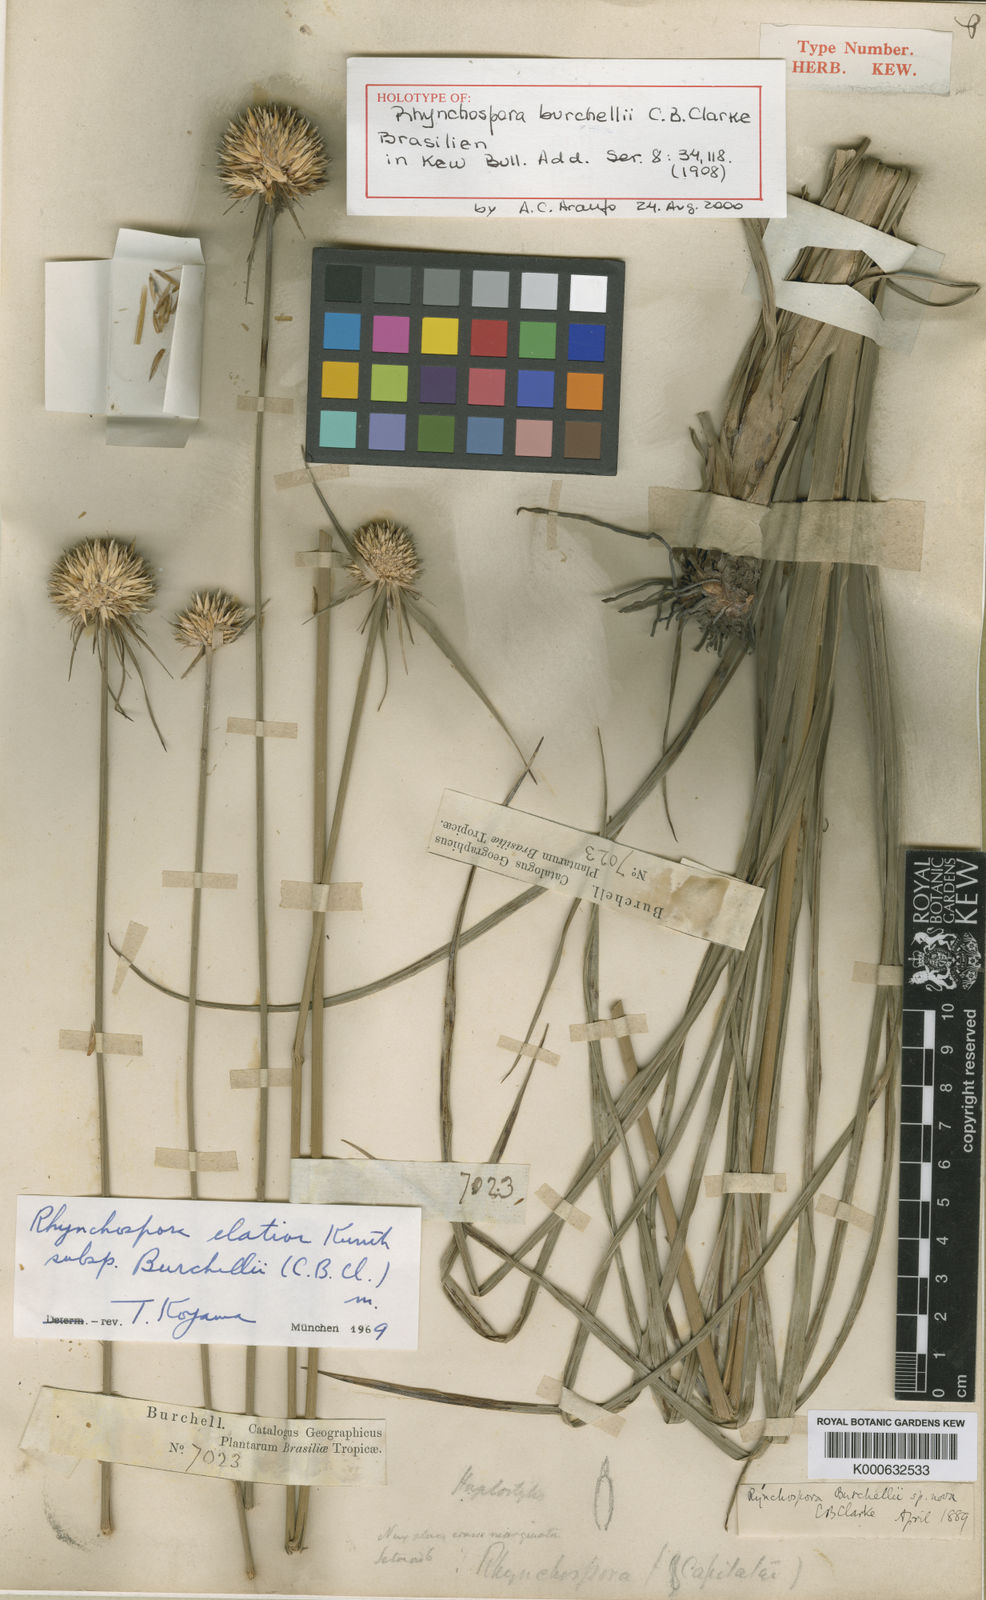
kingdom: Plantae
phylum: Tracheophyta
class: Liliopsida
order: Poales
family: Cyperaceae
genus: Rhynchospora
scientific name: Rhynchospora elatior
